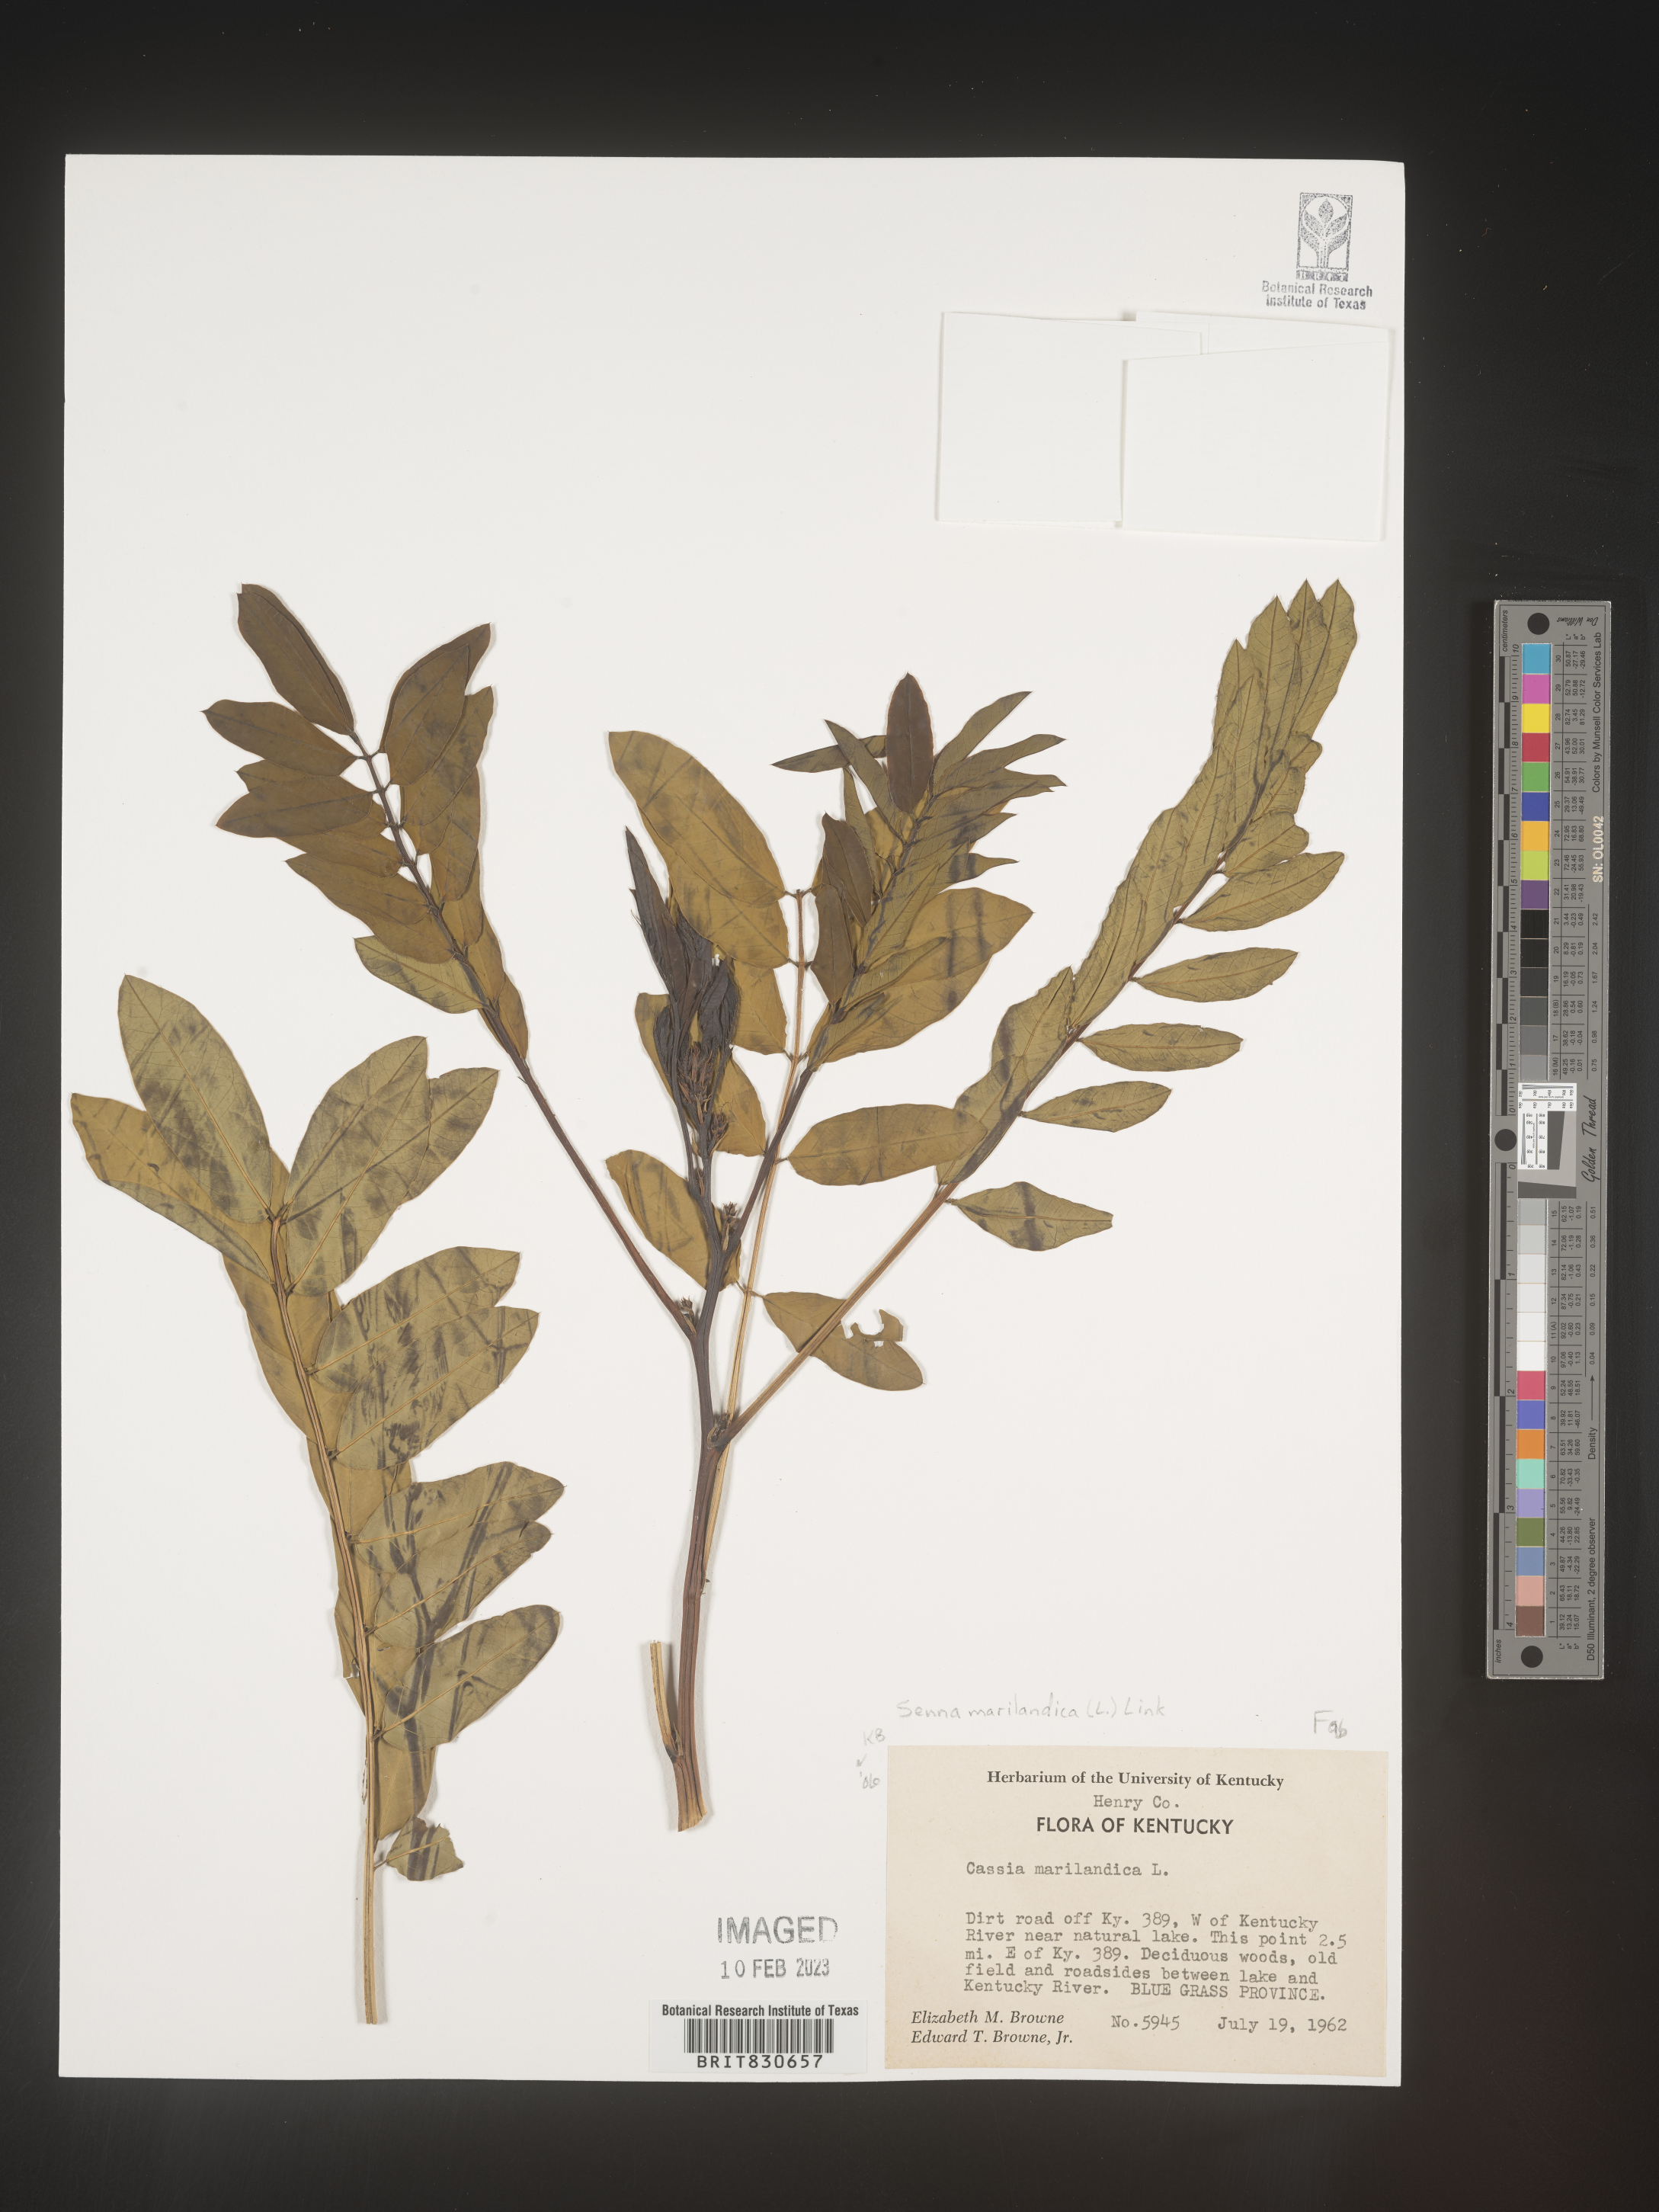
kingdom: Plantae
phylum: Tracheophyta
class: Magnoliopsida
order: Fabales
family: Fabaceae
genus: Senna
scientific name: Senna
